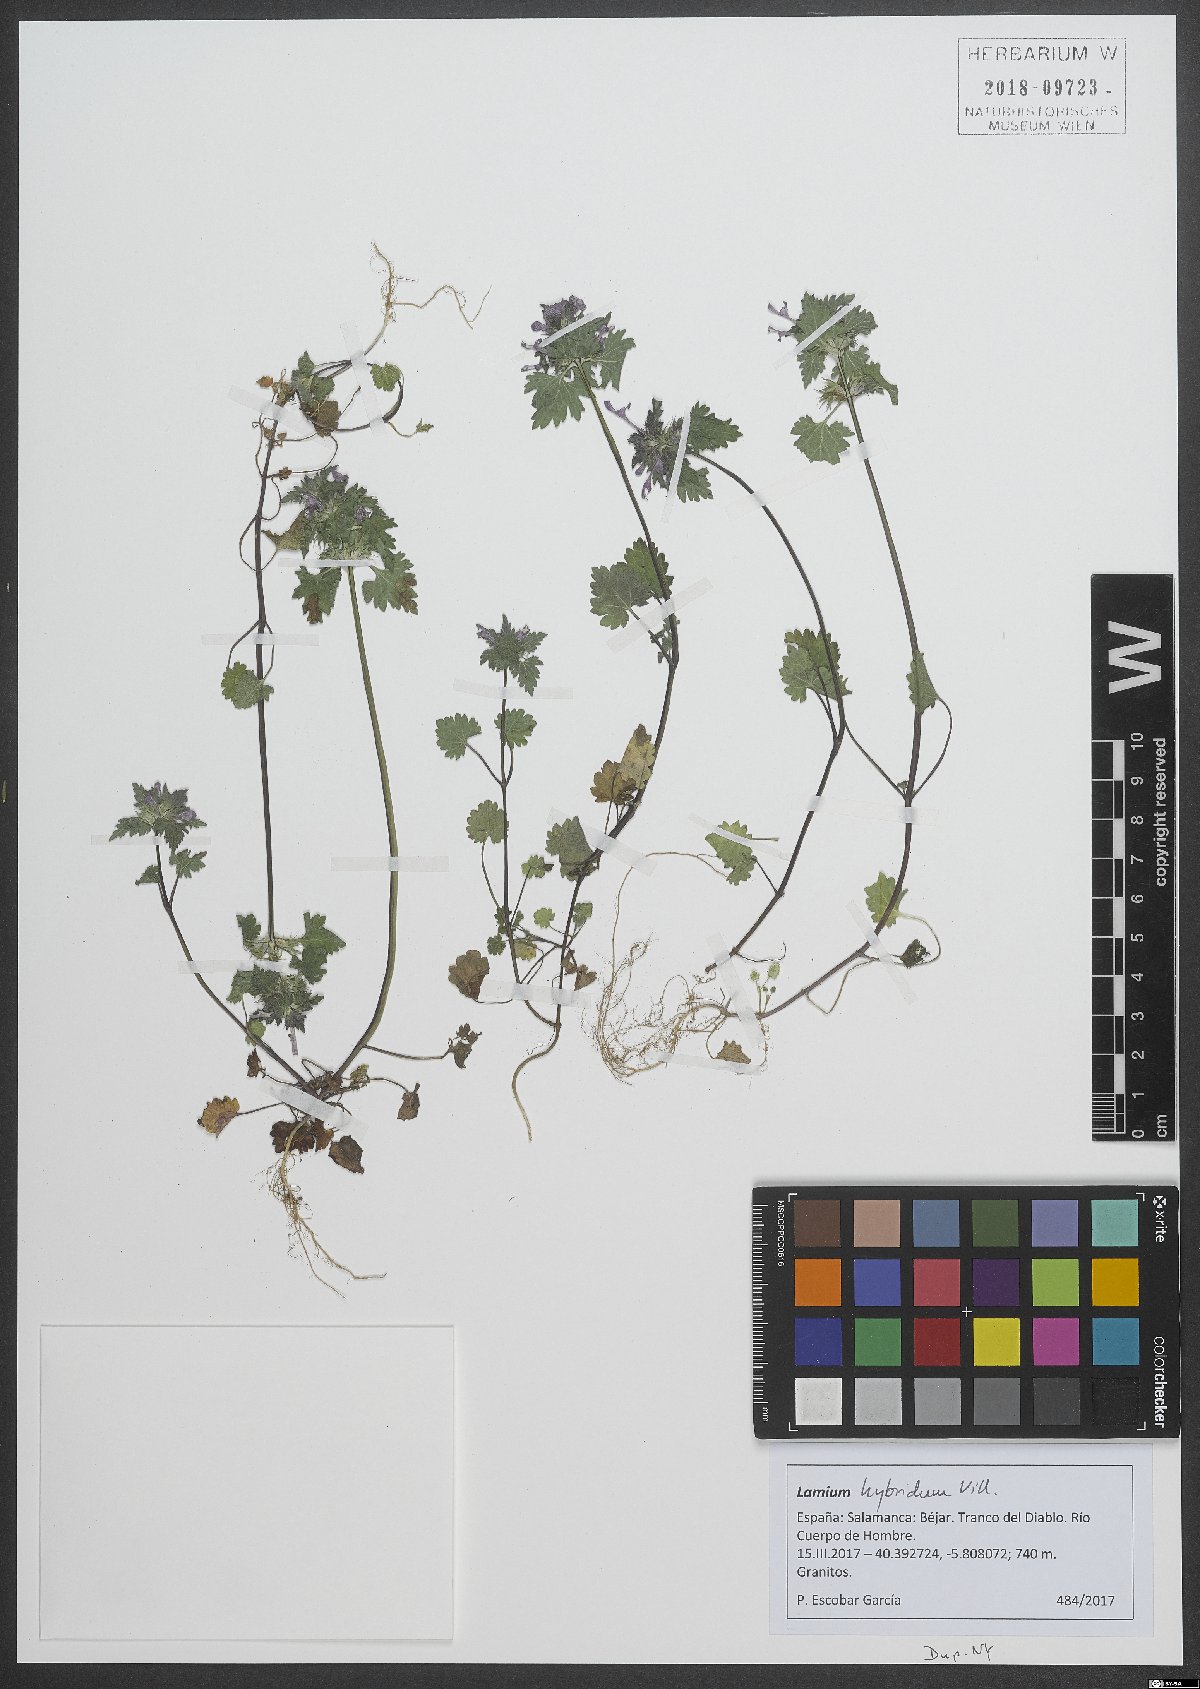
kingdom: Plantae
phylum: Tracheophyta
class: Magnoliopsida
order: Lamiales
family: Lamiaceae
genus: Lamium
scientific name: Lamium hybridum
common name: Cut-leaved dead-nettle
